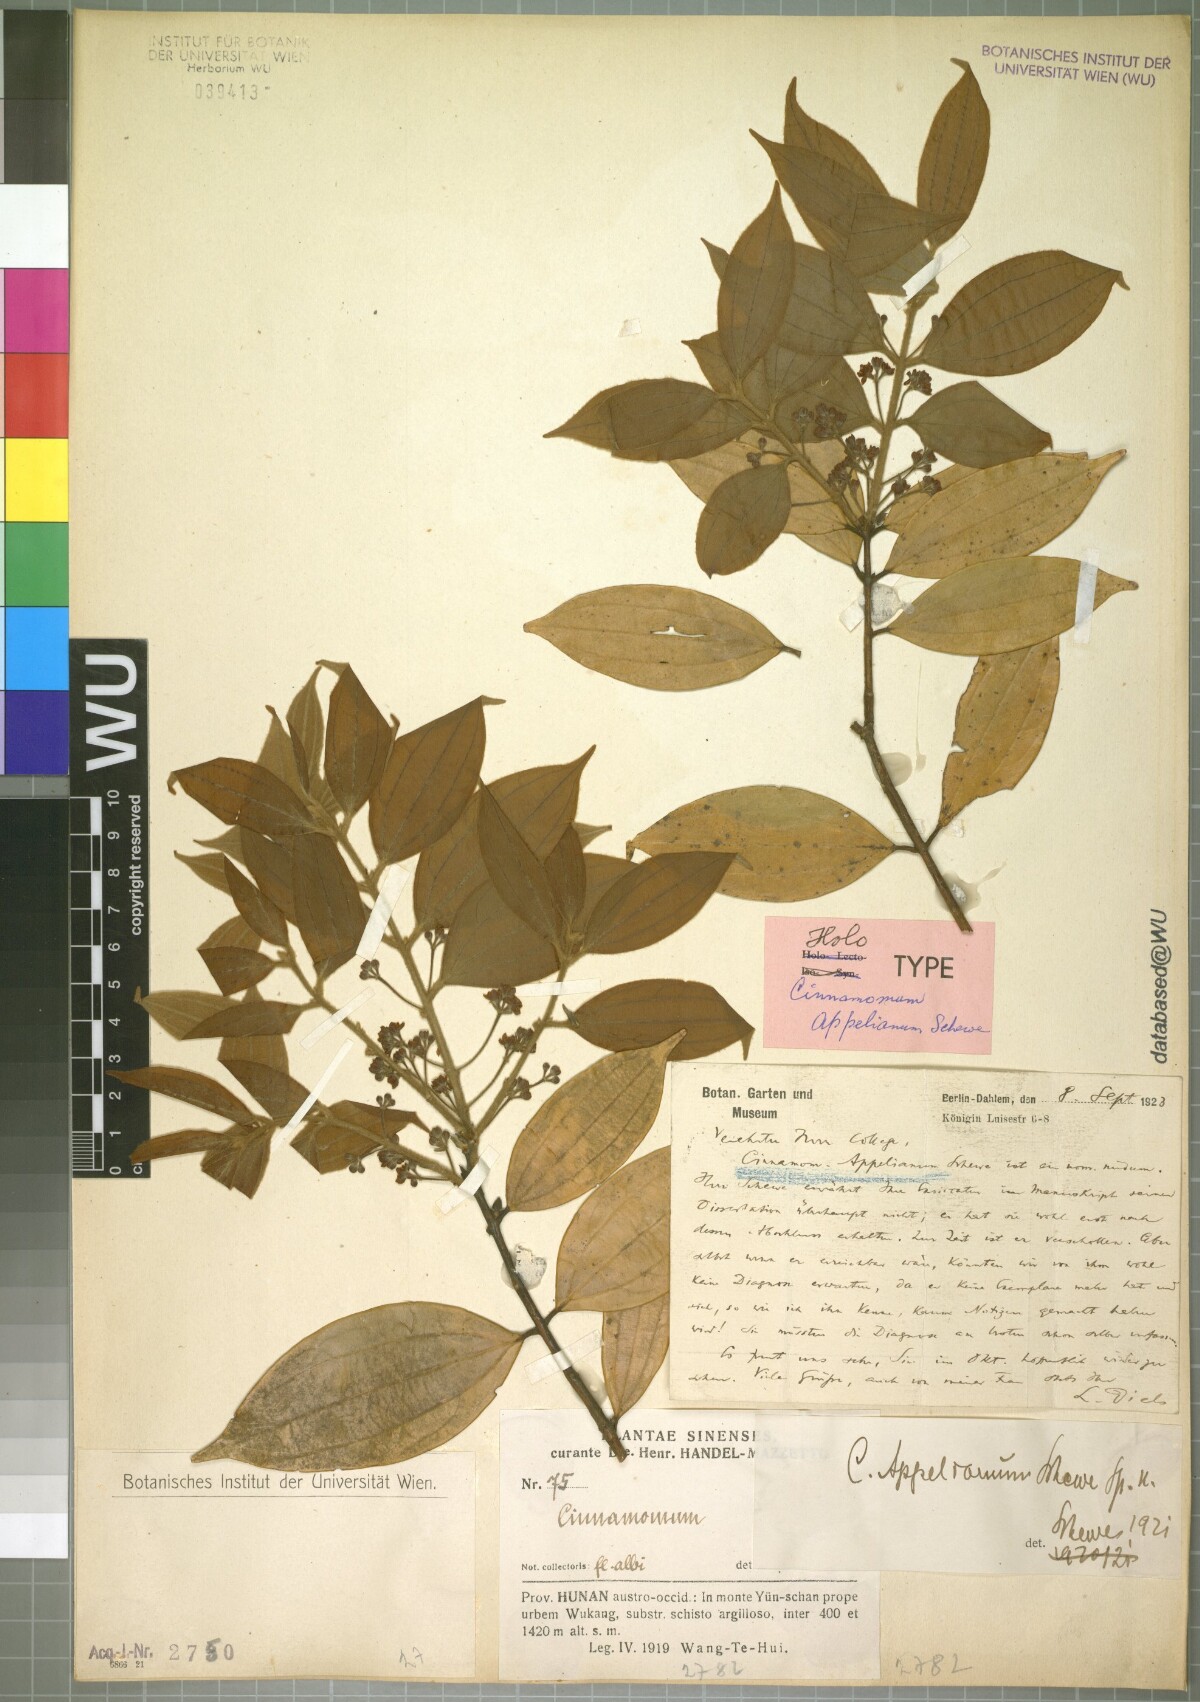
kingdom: Plantae
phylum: Tracheophyta
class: Magnoliopsida
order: Laurales
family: Lauraceae
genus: Cinnamomum
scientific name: Cinnamomum appelianum
